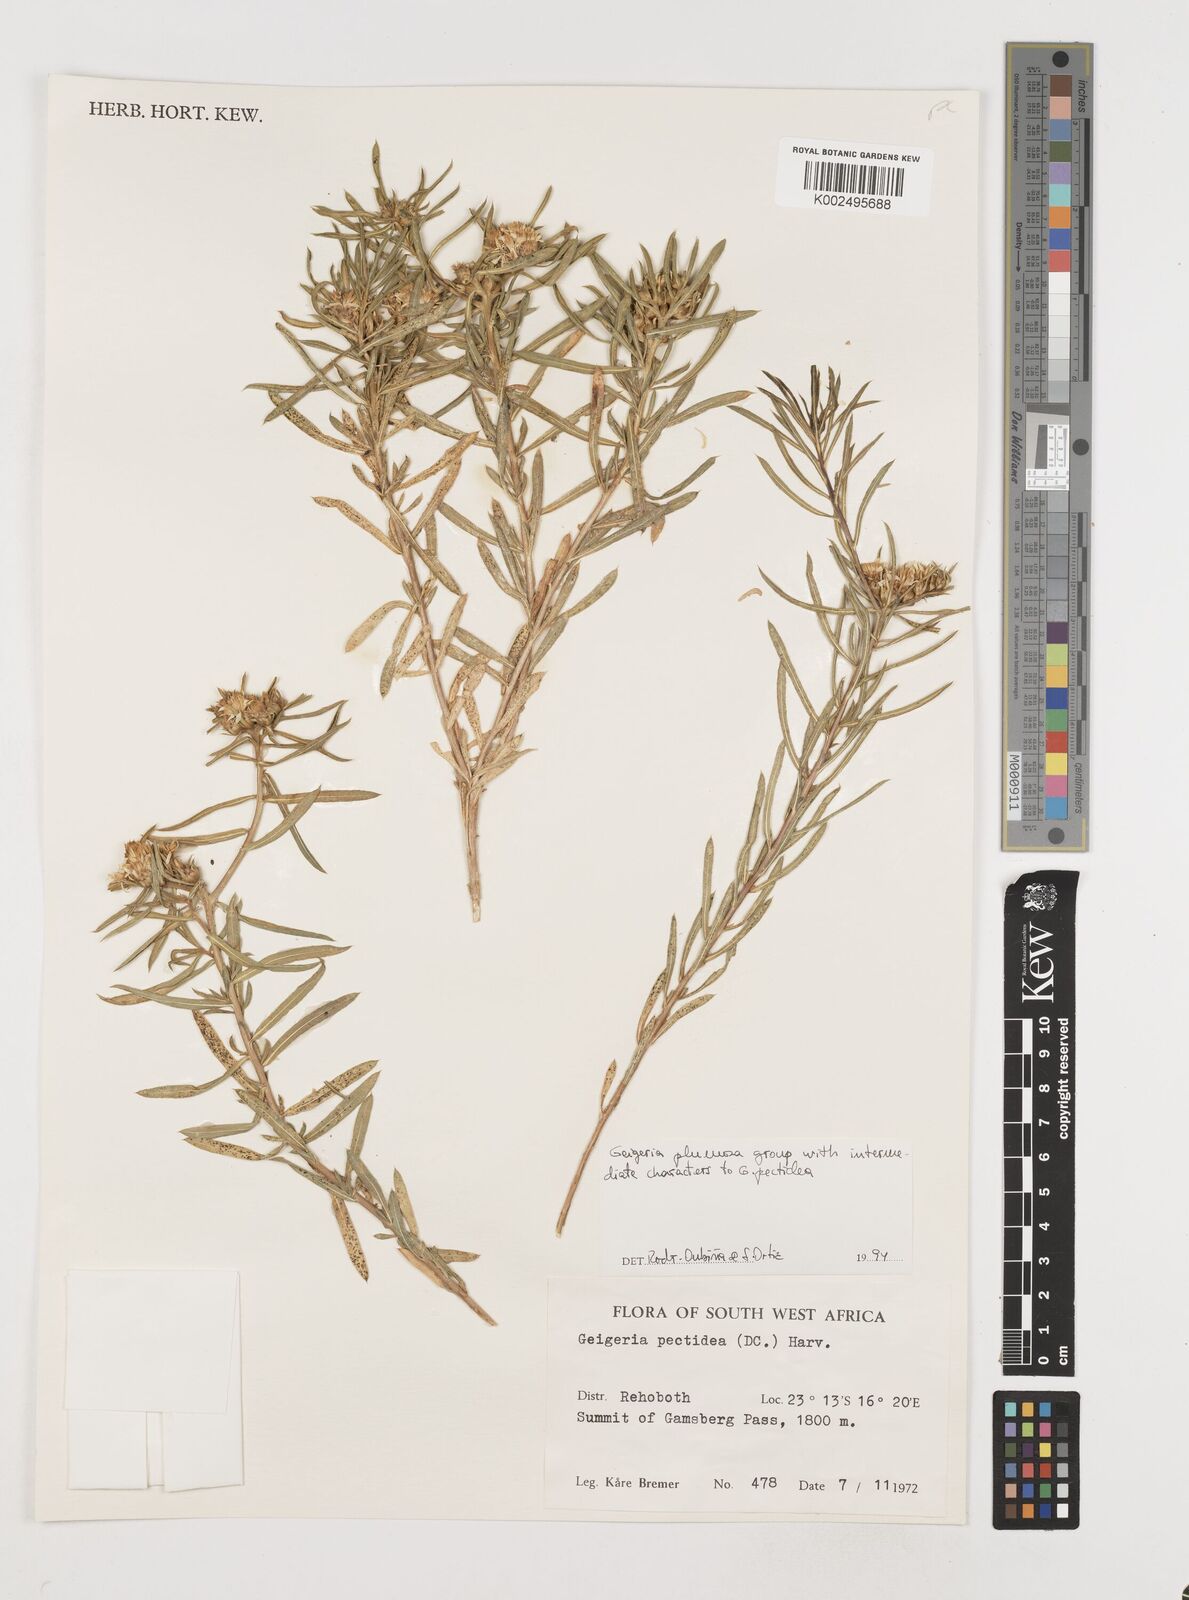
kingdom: Plantae
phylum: Tracheophyta
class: Magnoliopsida
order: Asterales
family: Asteraceae
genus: Geigeria
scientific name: Geigeria pectidea
